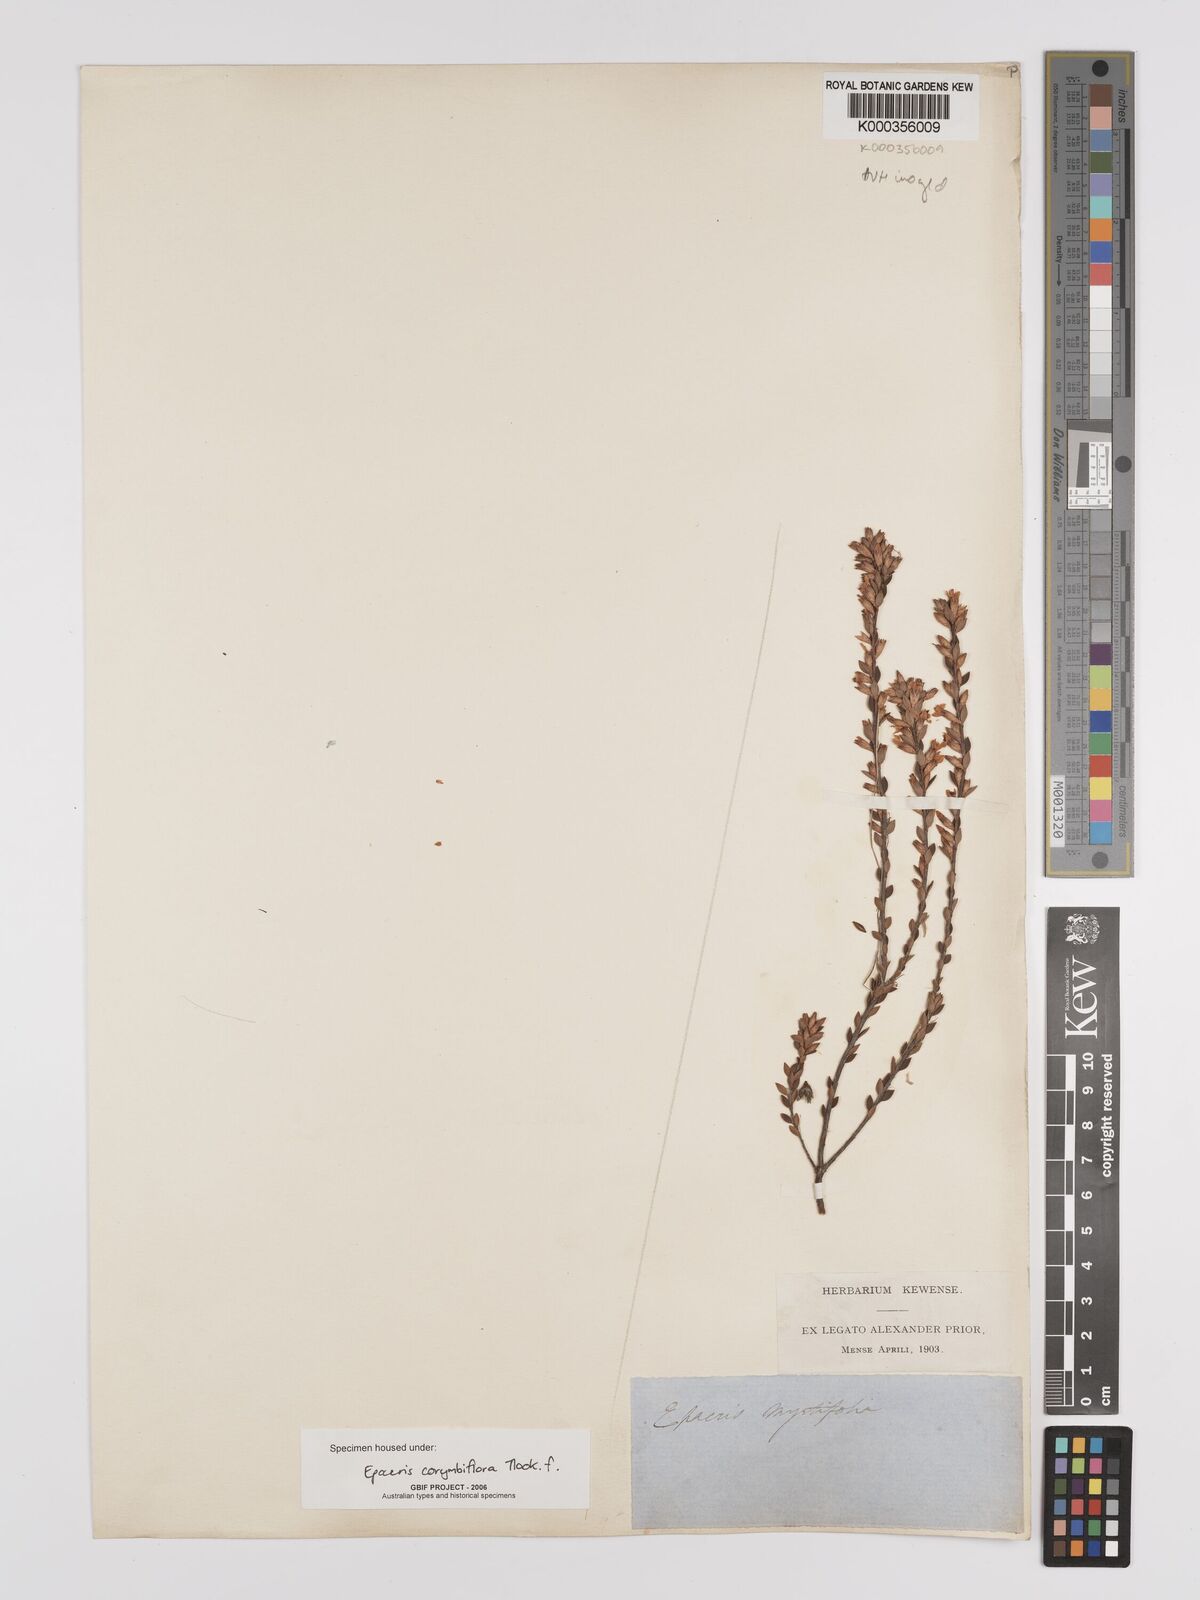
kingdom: Plantae
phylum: Tracheophyta
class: Magnoliopsida
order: Ericales
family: Ericaceae
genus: Epacris
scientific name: Epacris corymbiflora
